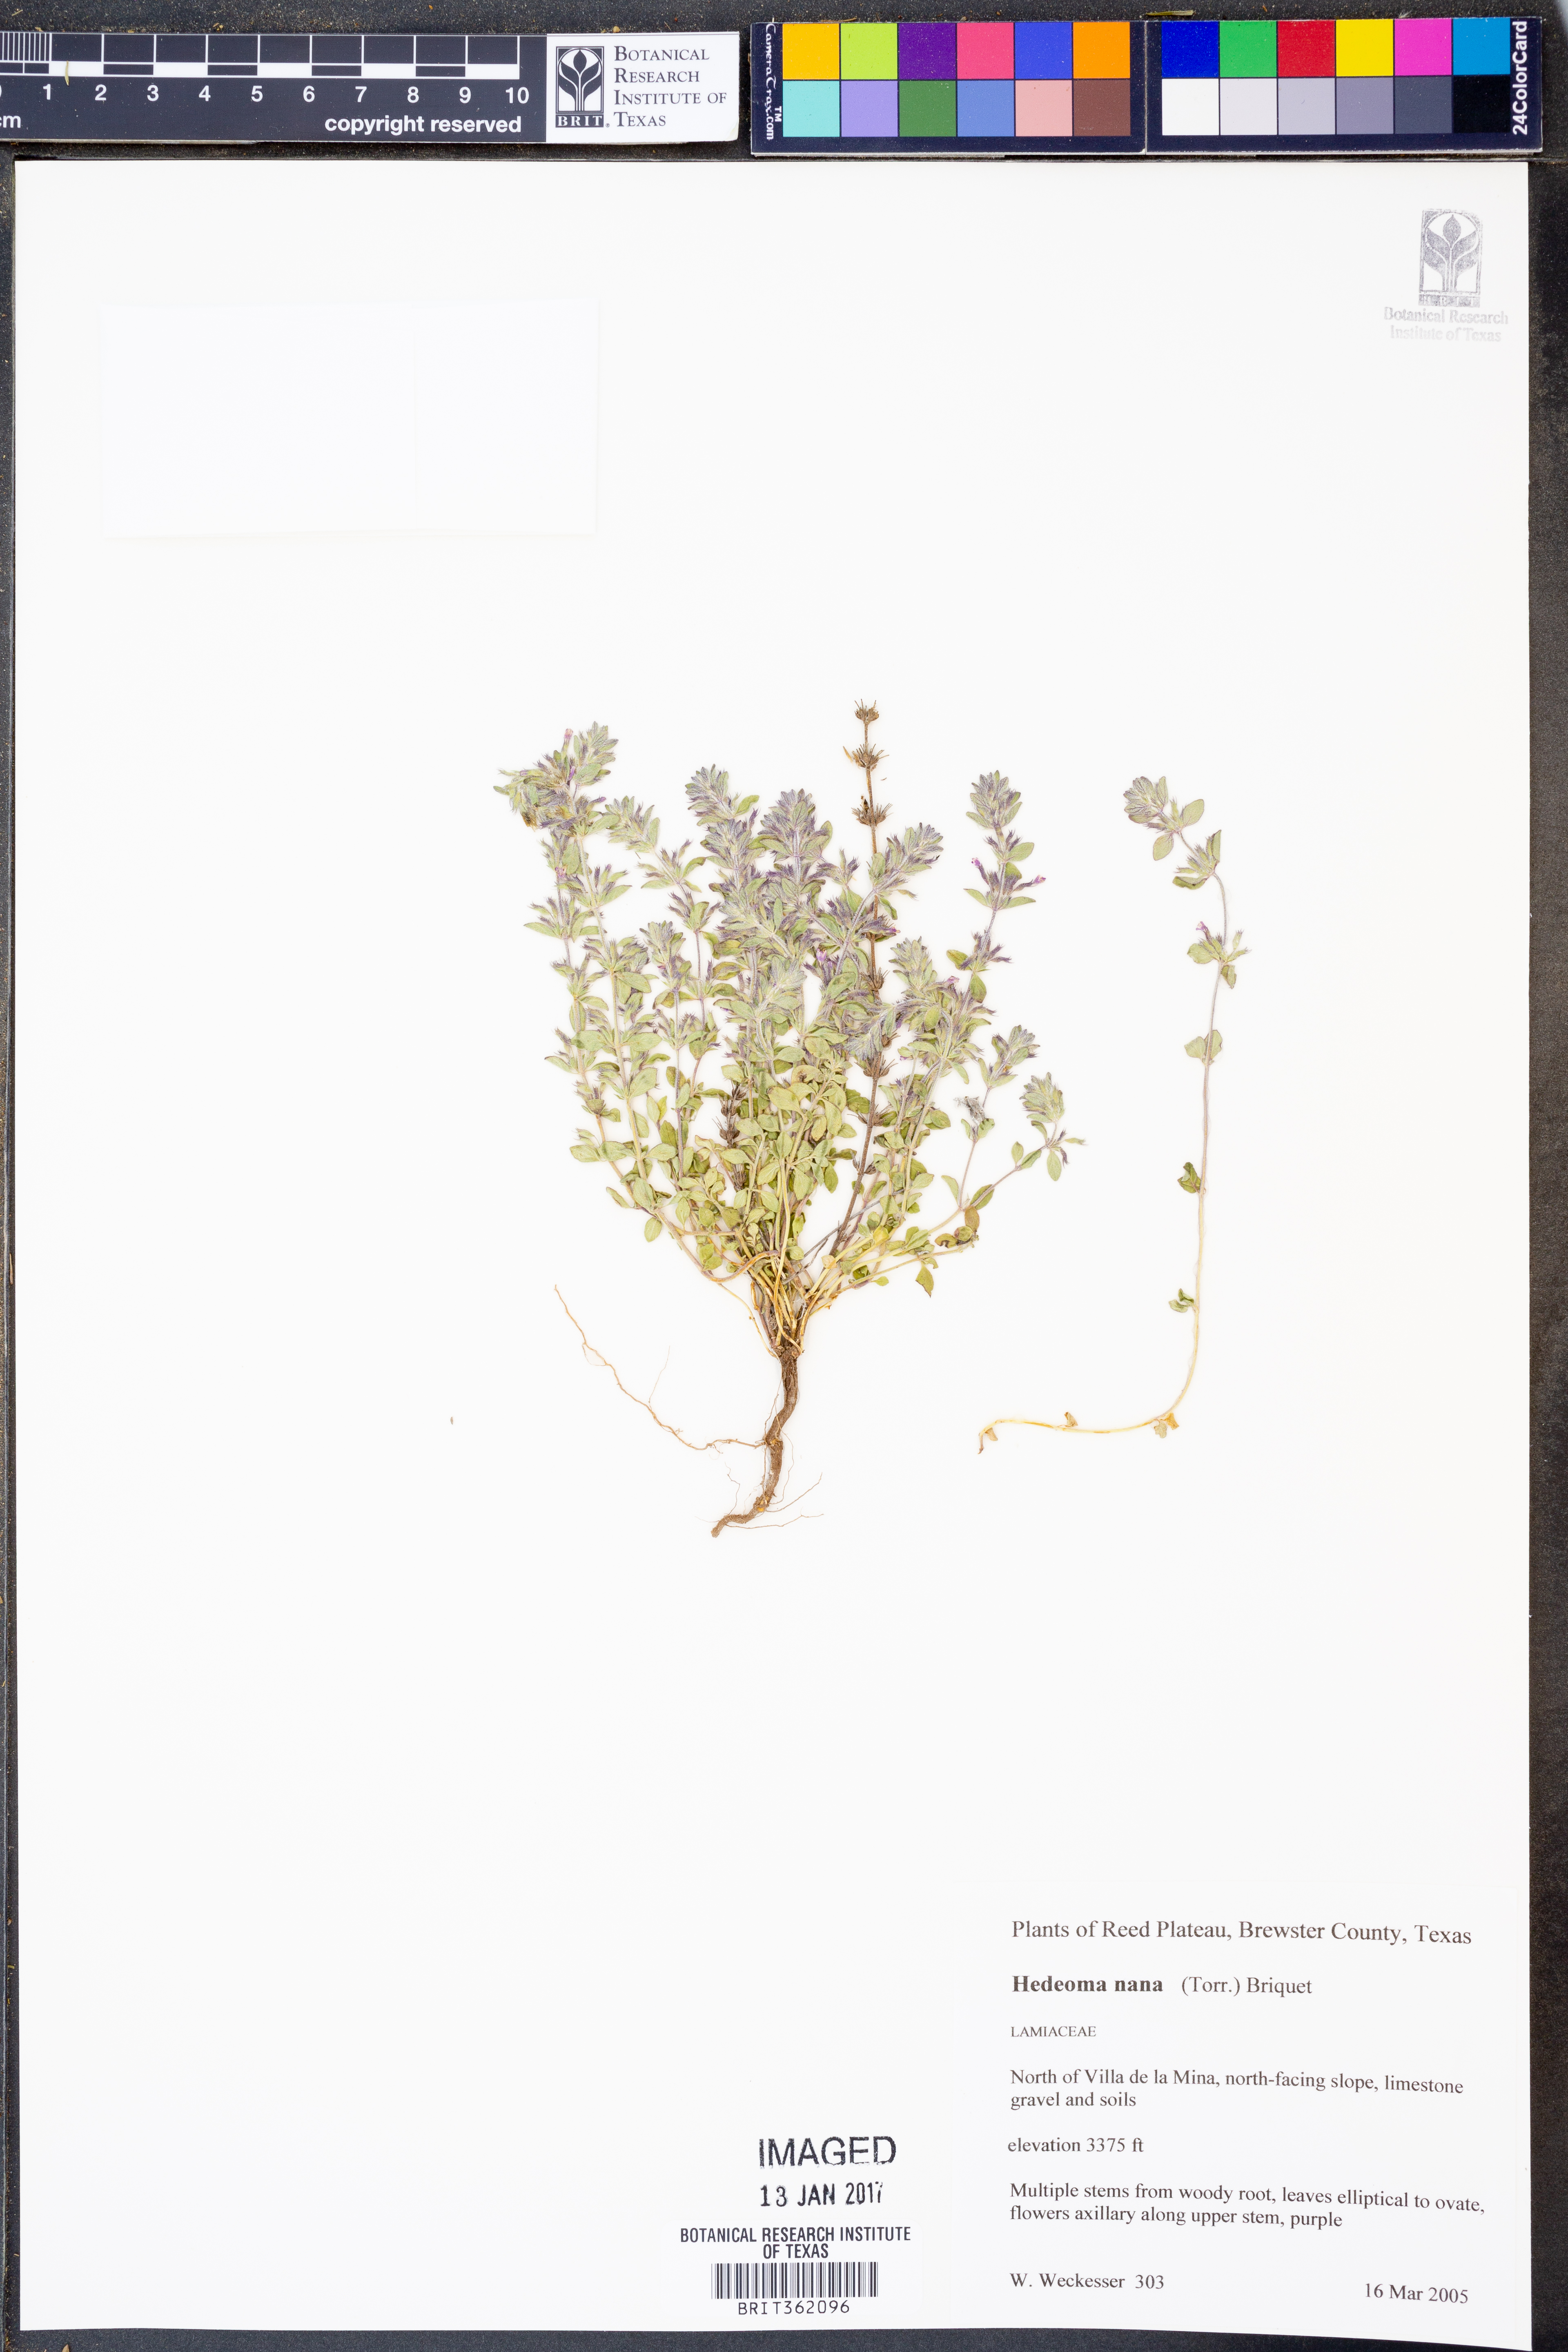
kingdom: Plantae
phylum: Tracheophyta
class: Magnoliopsida
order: Lamiales
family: Lamiaceae
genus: Hedeoma
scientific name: Hedeoma nana
